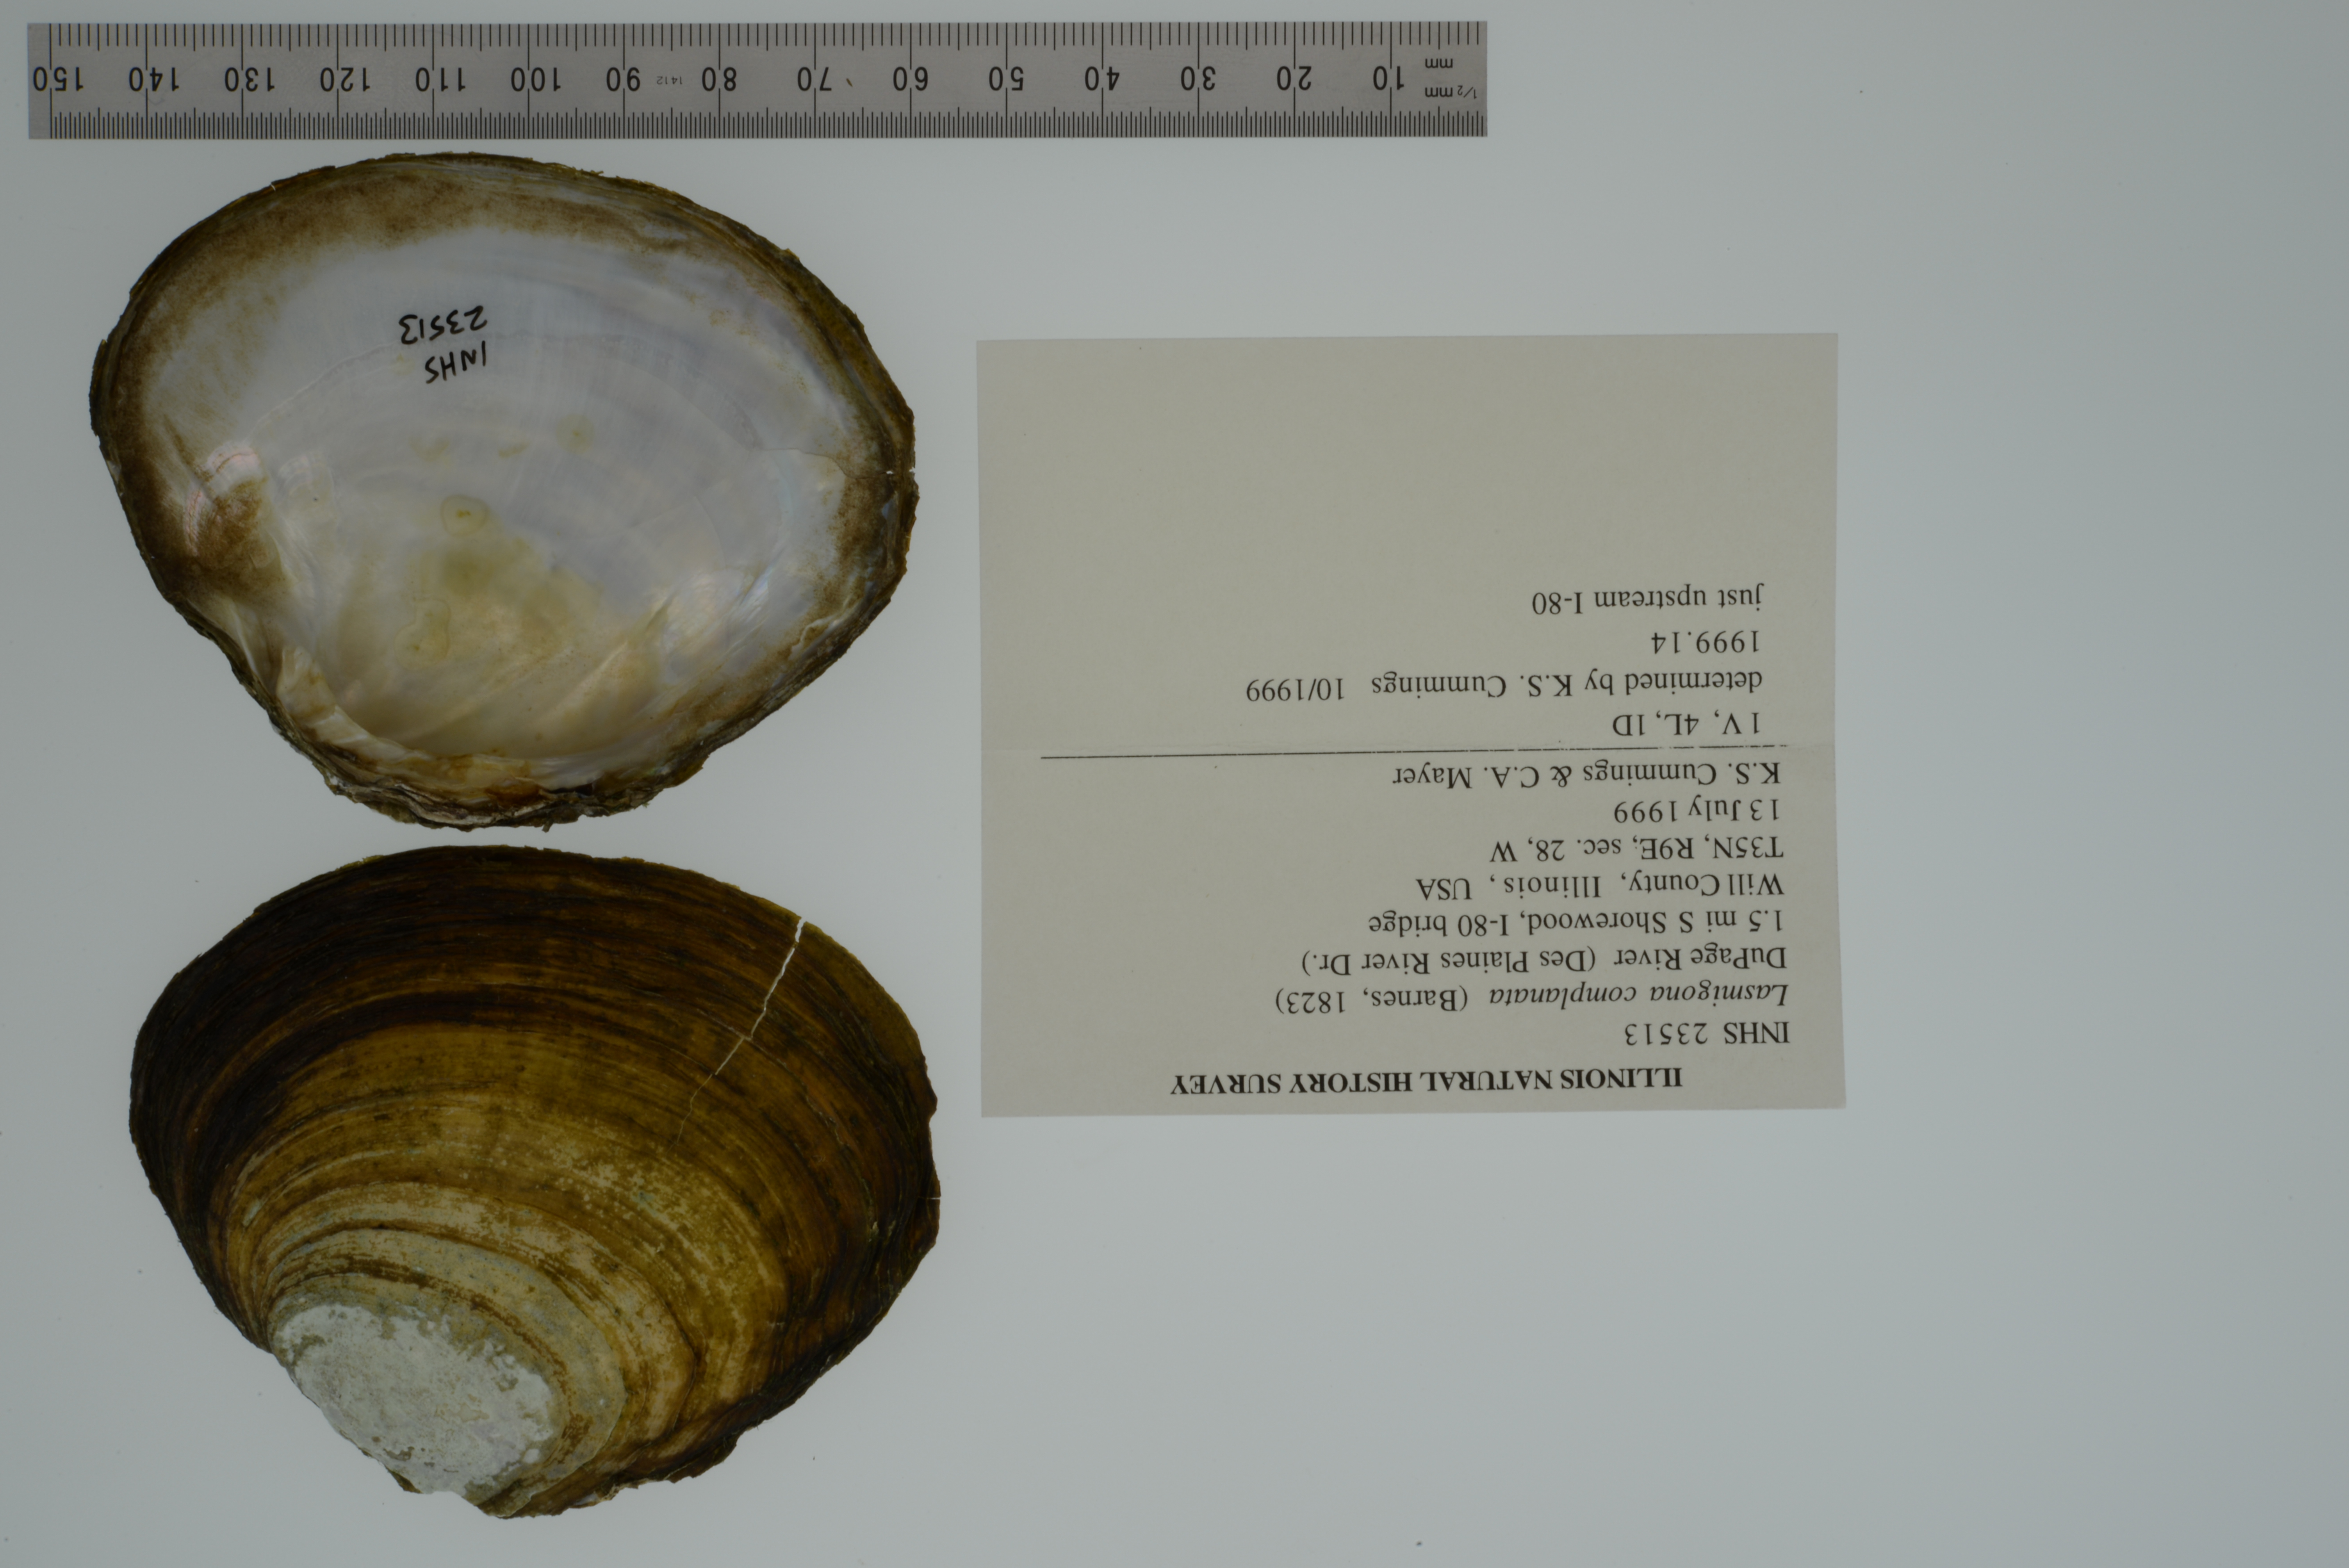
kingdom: Animalia
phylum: Mollusca
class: Bivalvia
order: Unionida
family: Unionidae
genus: Lasmigona
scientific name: Lasmigona complanata
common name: White heelsplitter
